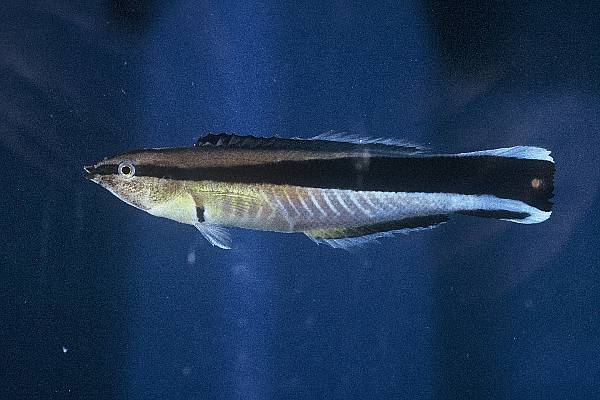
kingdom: Animalia
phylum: Chordata
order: Perciformes
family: Labridae
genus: Labroides
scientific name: Labroides dimidiatus
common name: Blue diesel wrasse
